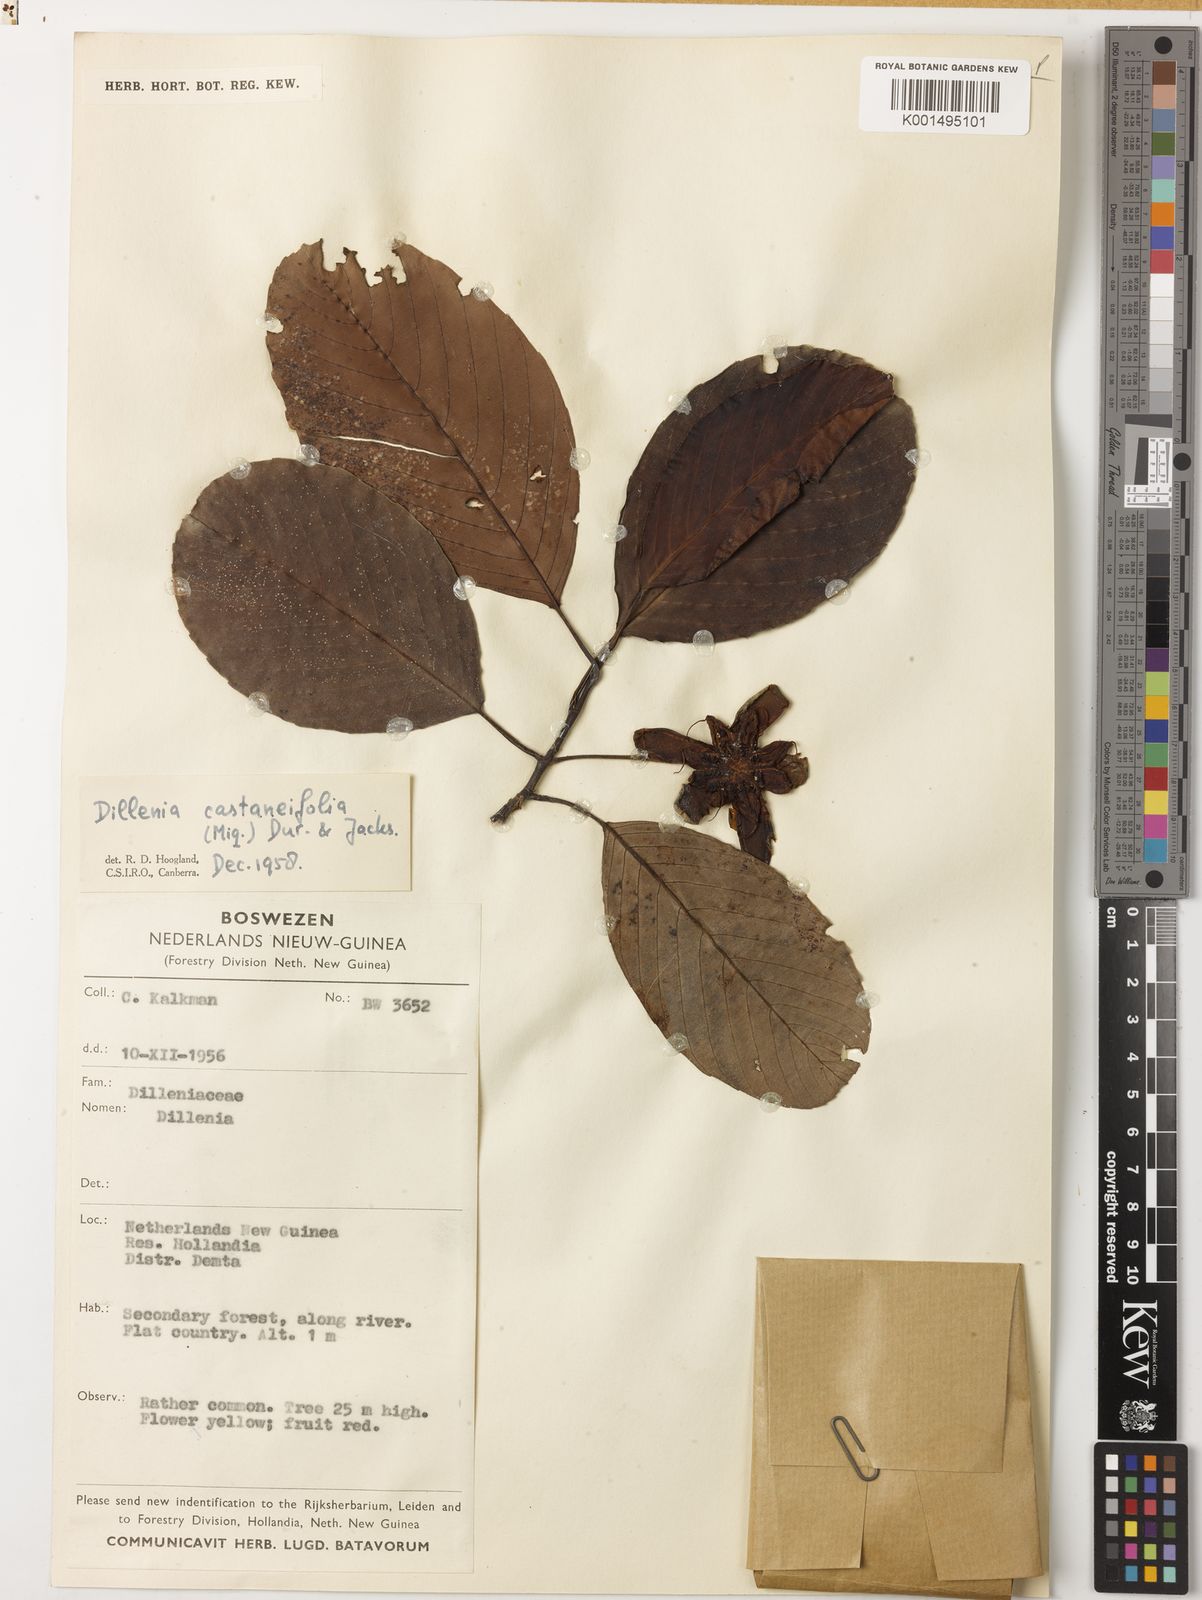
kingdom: Plantae
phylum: Tracheophyta
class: Magnoliopsida
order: Dilleniales
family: Dilleniaceae
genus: Dillenia
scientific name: Dillenia castaneifolia
